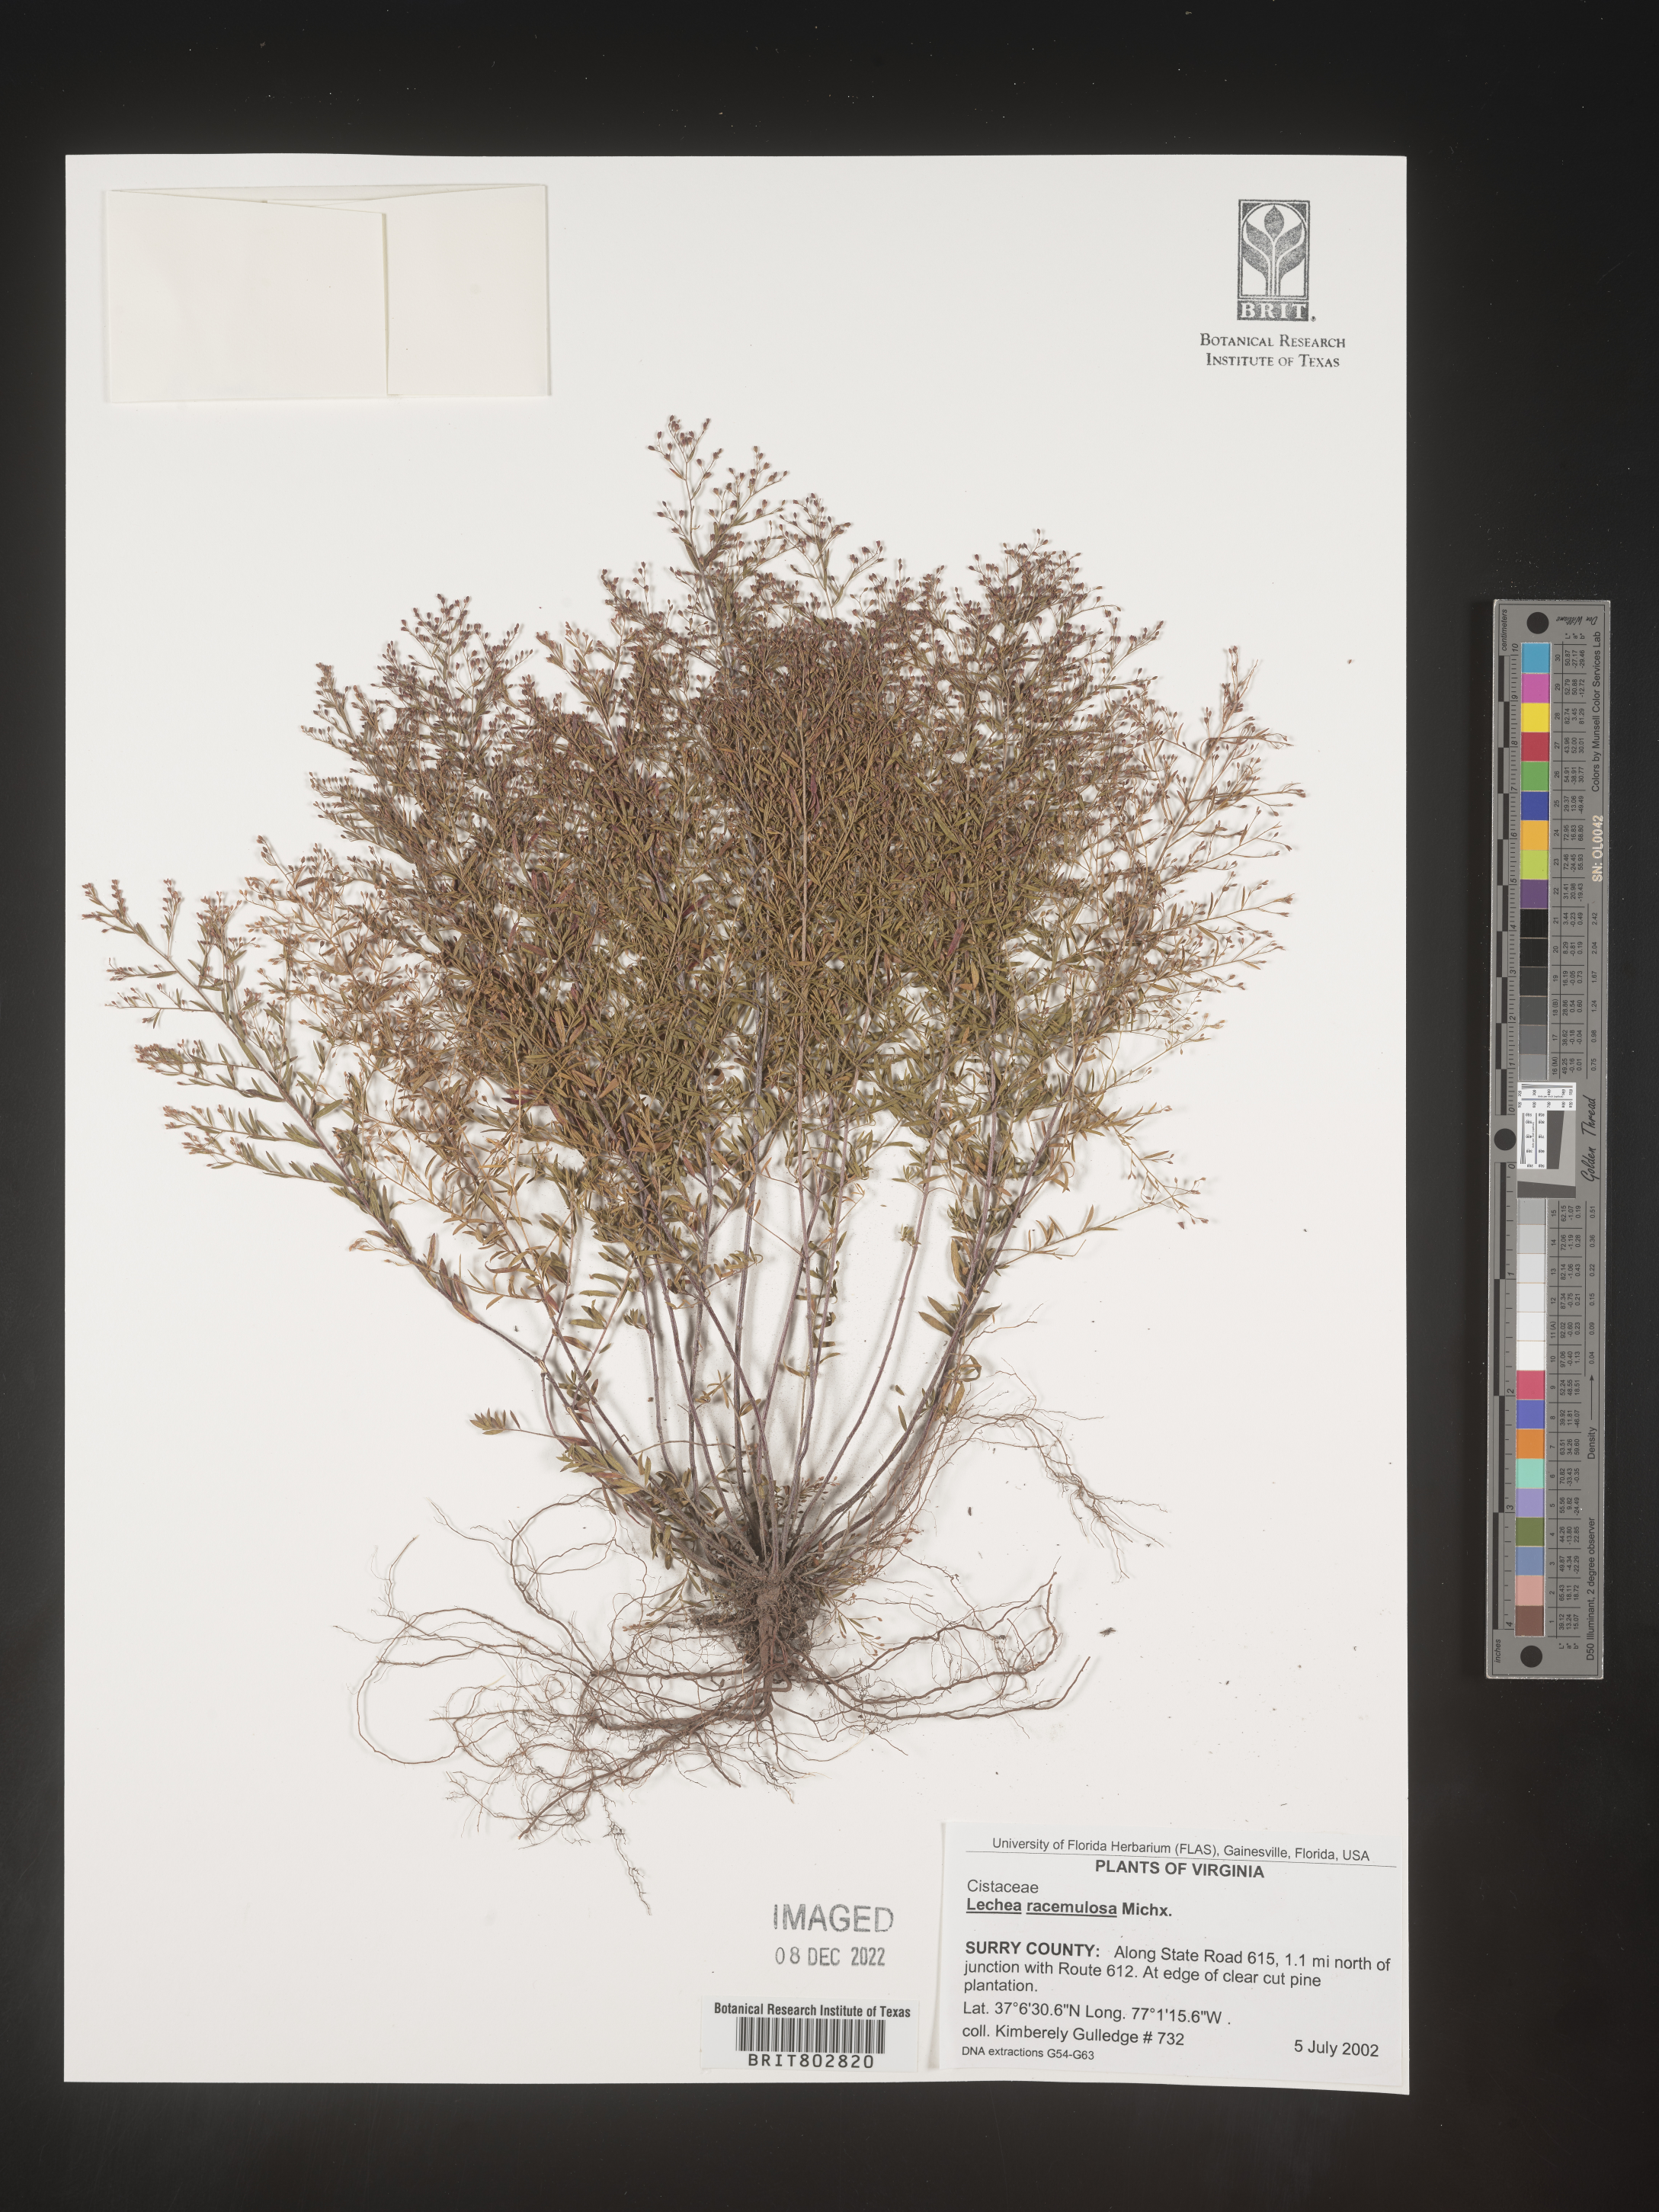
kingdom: Plantae
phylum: Tracheophyta
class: Magnoliopsida
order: Malvales
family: Cistaceae
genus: Lechea
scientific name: Lechea racemulosa
